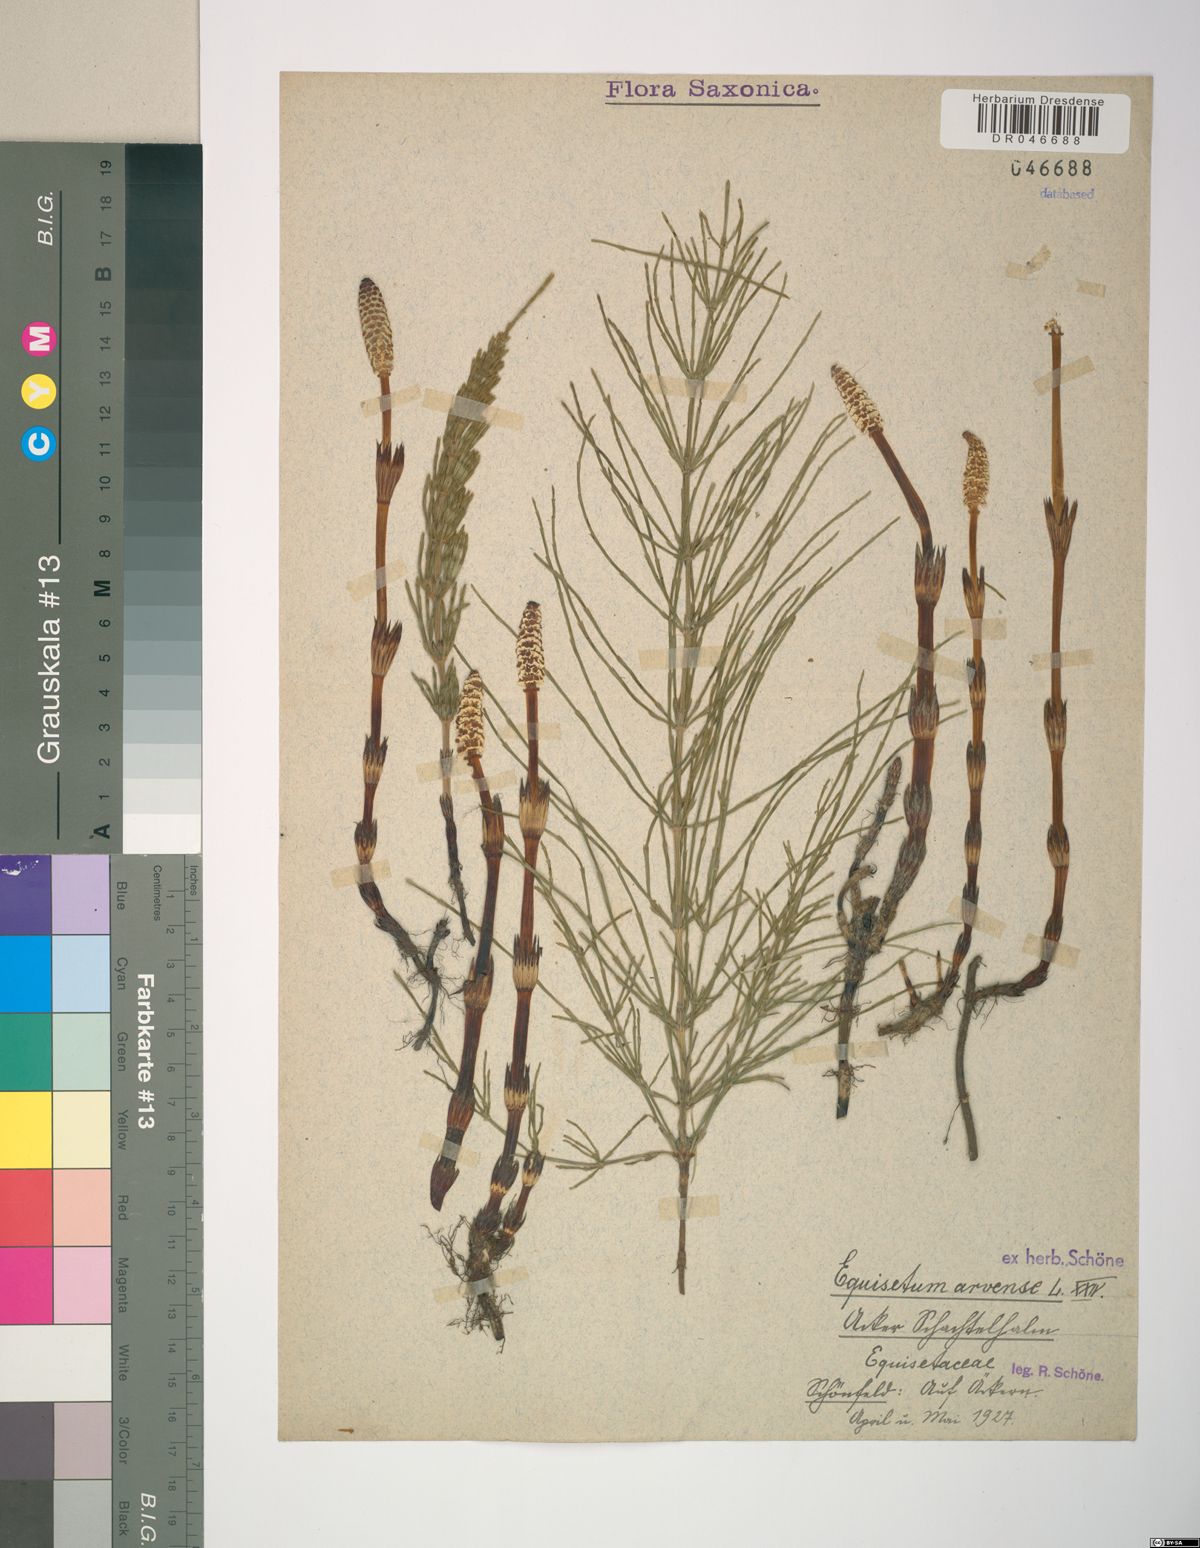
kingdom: Plantae
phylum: Tracheophyta
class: Polypodiopsida
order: Equisetales
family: Equisetaceae
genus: Equisetum
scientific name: Equisetum arvense
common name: Field horsetail
